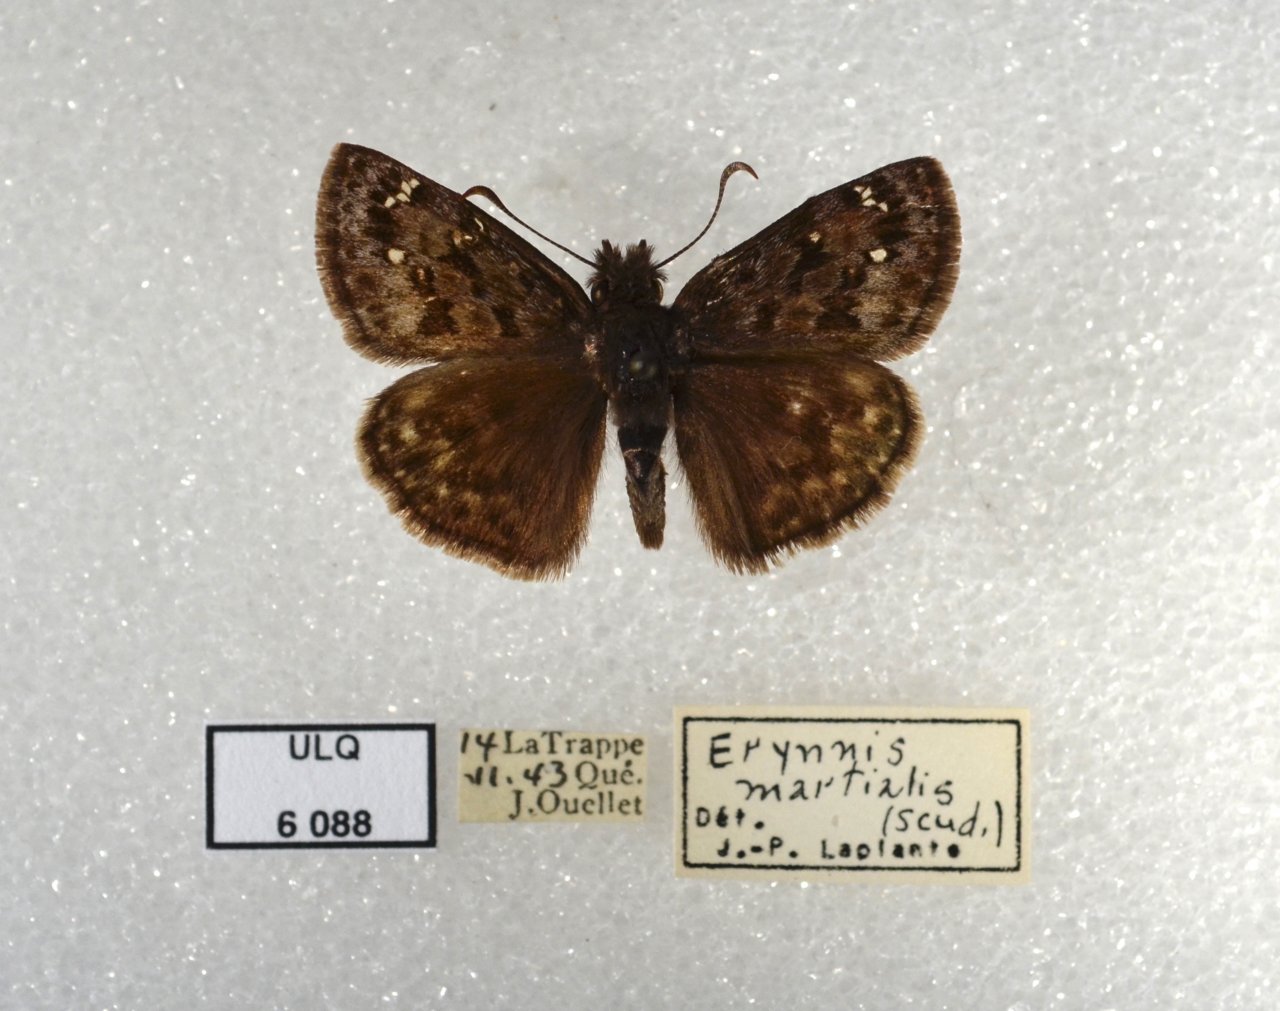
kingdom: Animalia
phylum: Arthropoda
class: Insecta
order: Lepidoptera
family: Hesperiidae
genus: Erynnis
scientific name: Erynnis martialis
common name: Mottled Duskywing
